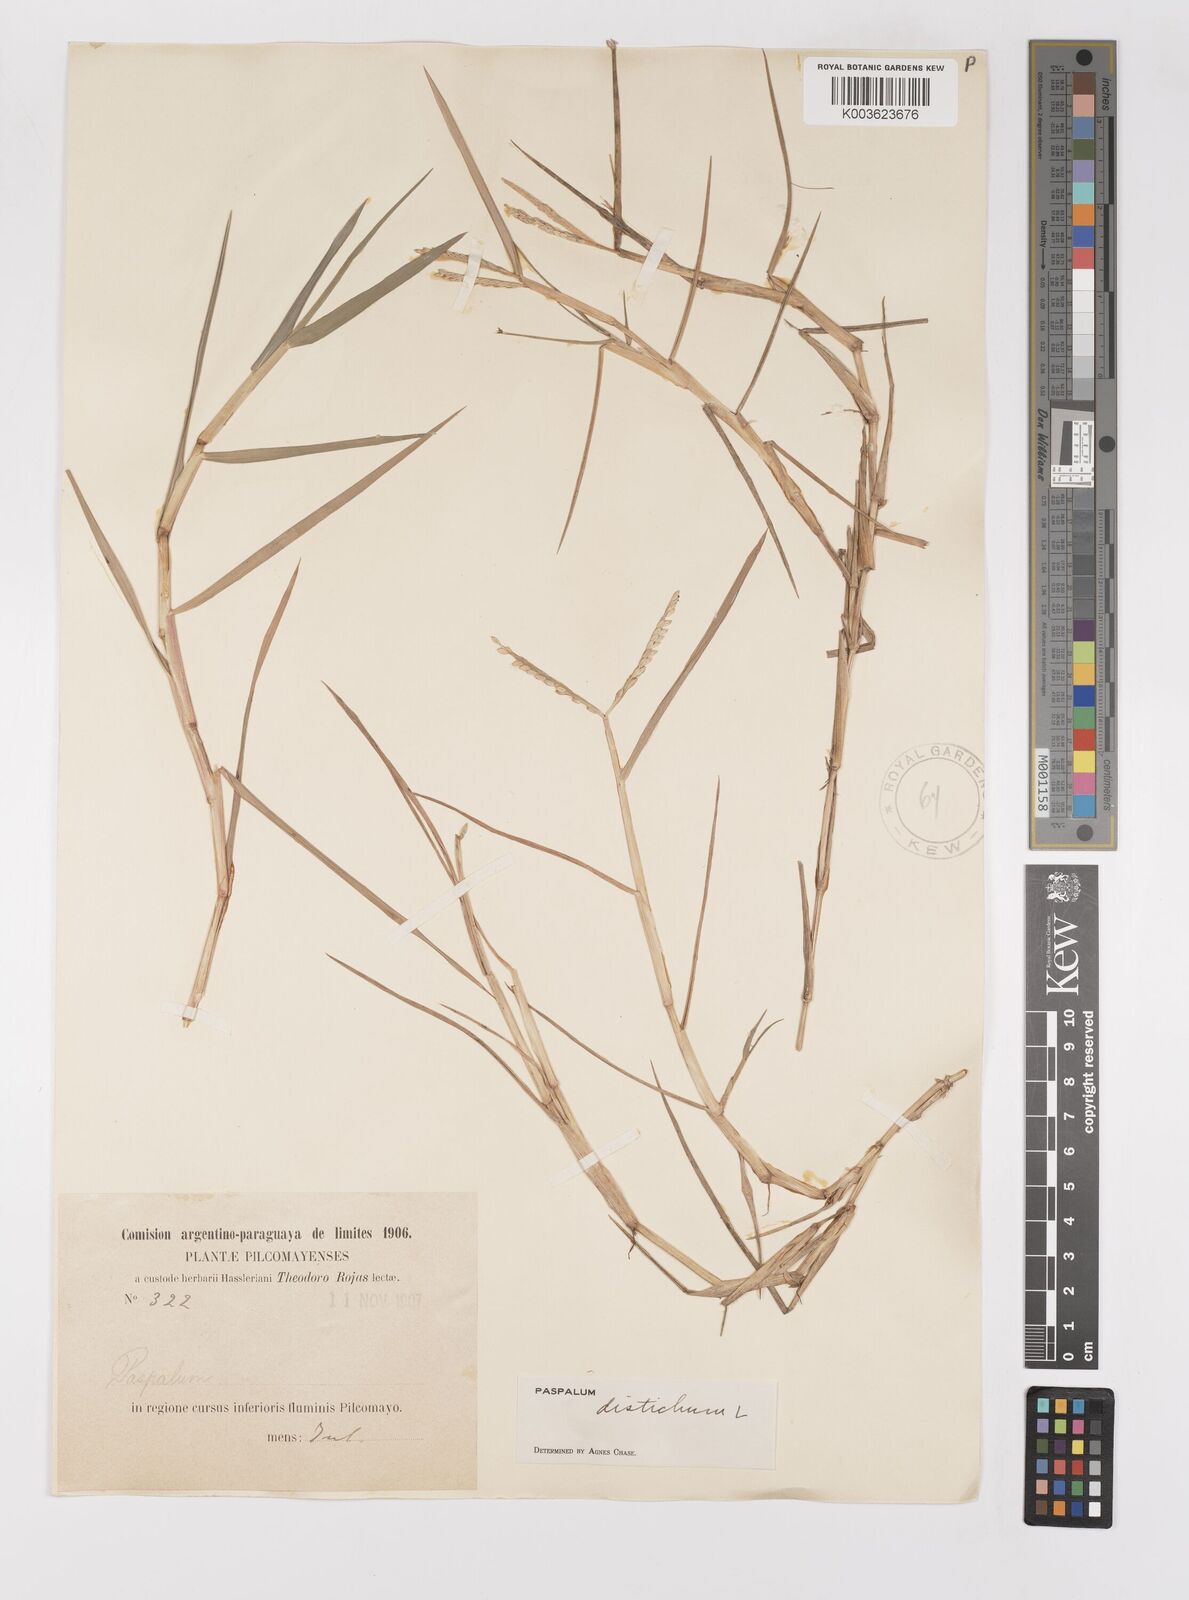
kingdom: Plantae
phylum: Tracheophyta
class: Liliopsida
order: Poales
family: Poaceae
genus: Paspalum
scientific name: Paspalum distichum
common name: Knotgrass
